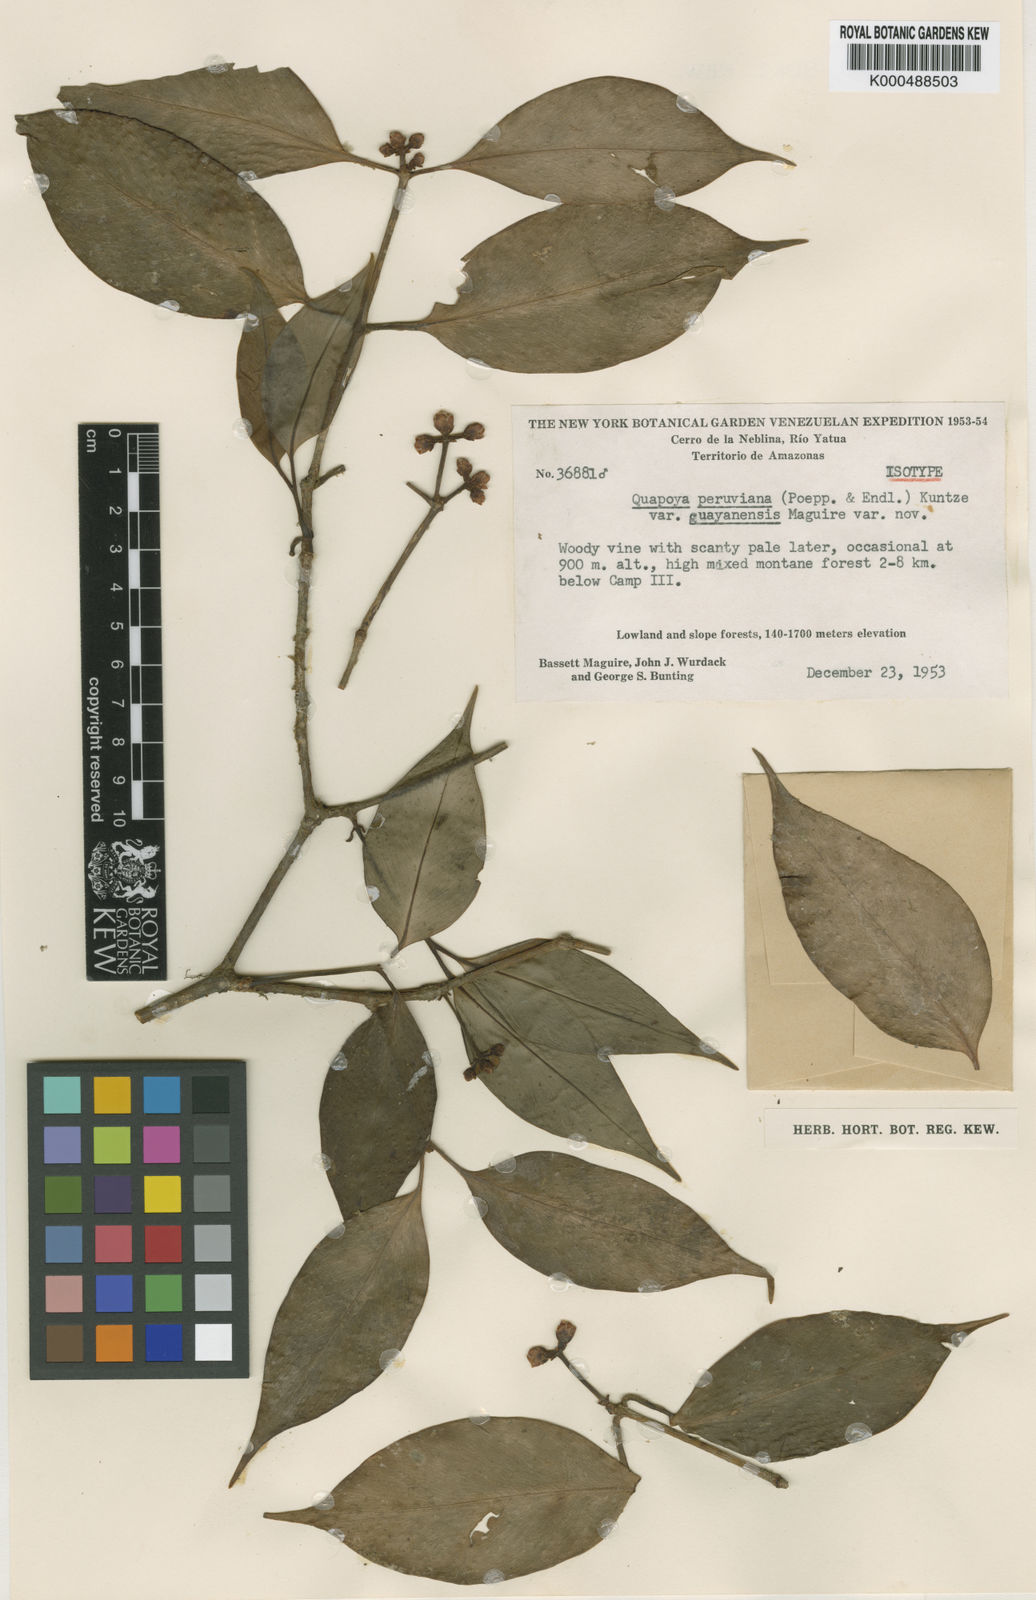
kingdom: Plantae
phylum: Tracheophyta
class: Magnoliopsida
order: Malpighiales
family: Clusiaceae
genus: Clusia
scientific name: Clusia hammeliana
